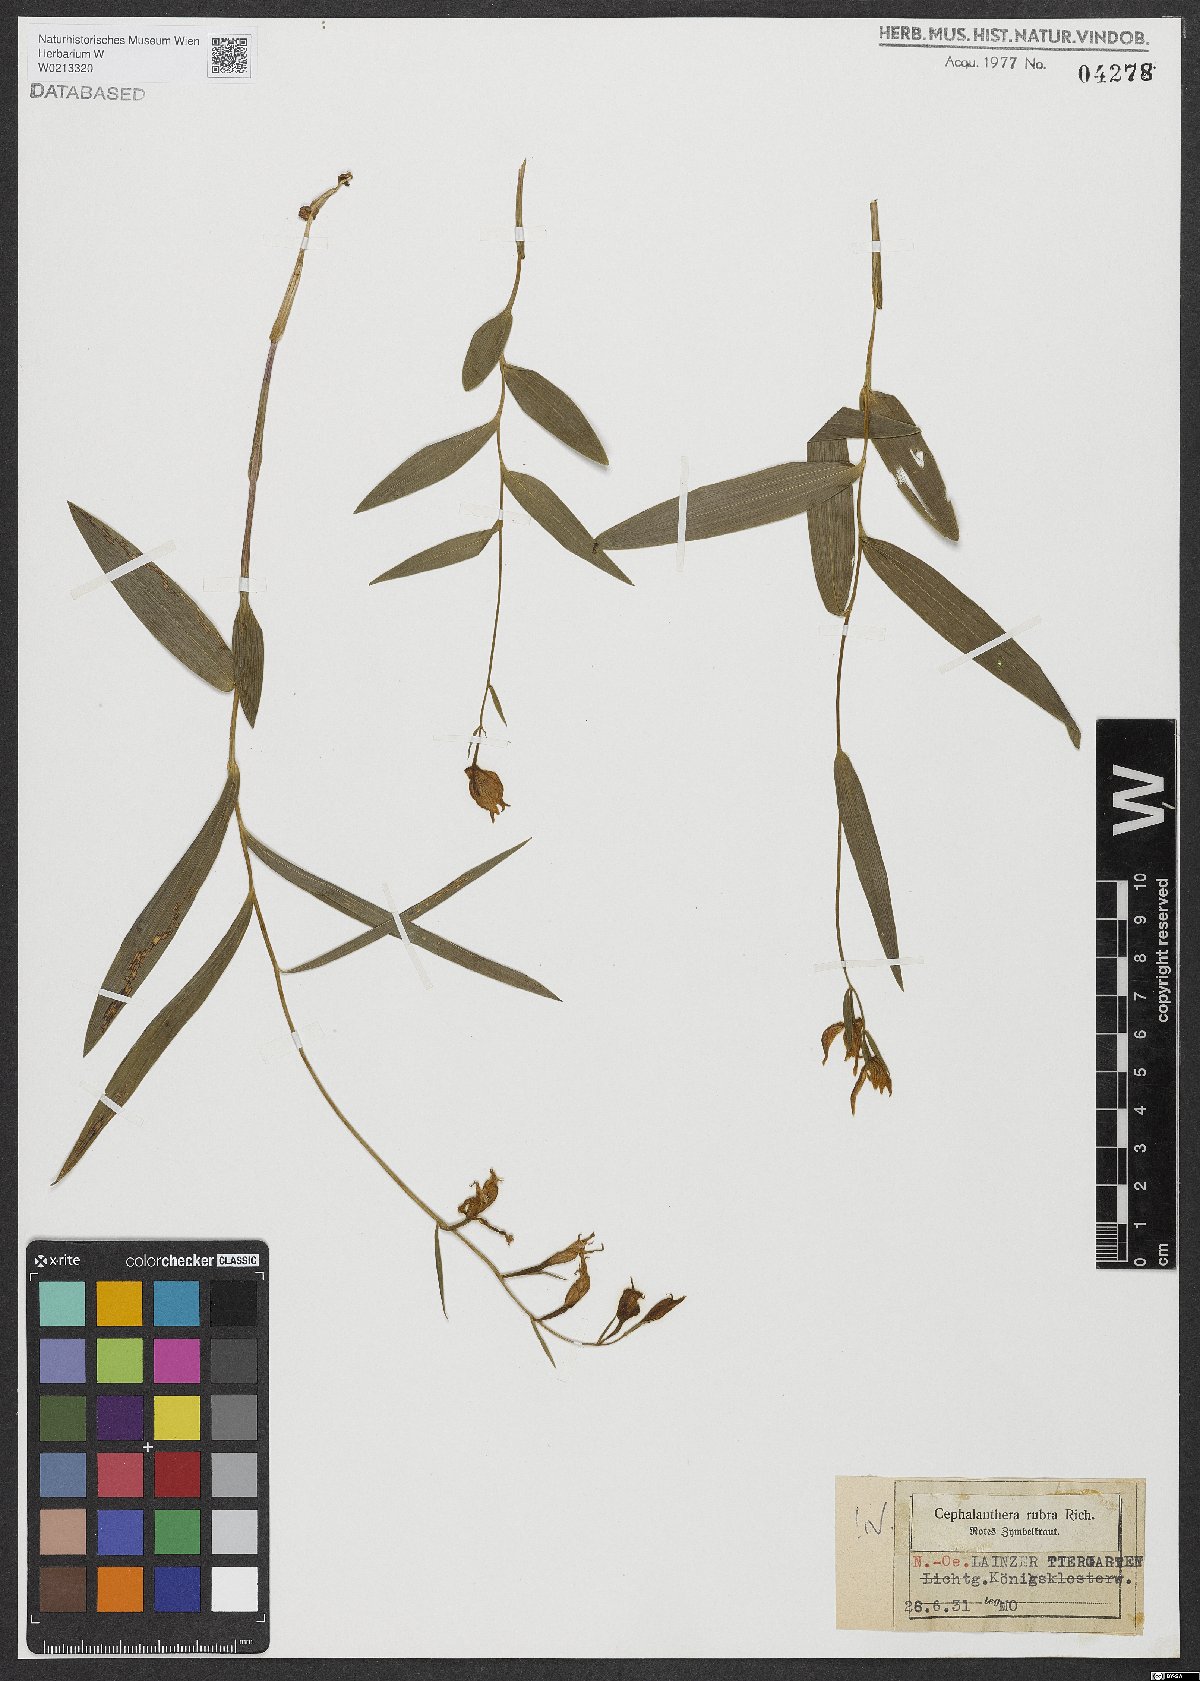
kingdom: Plantae
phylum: Tracheophyta
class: Liliopsida
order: Asparagales
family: Orchidaceae
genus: Cephalanthera
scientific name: Cephalanthera rubra
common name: Red helleborine
